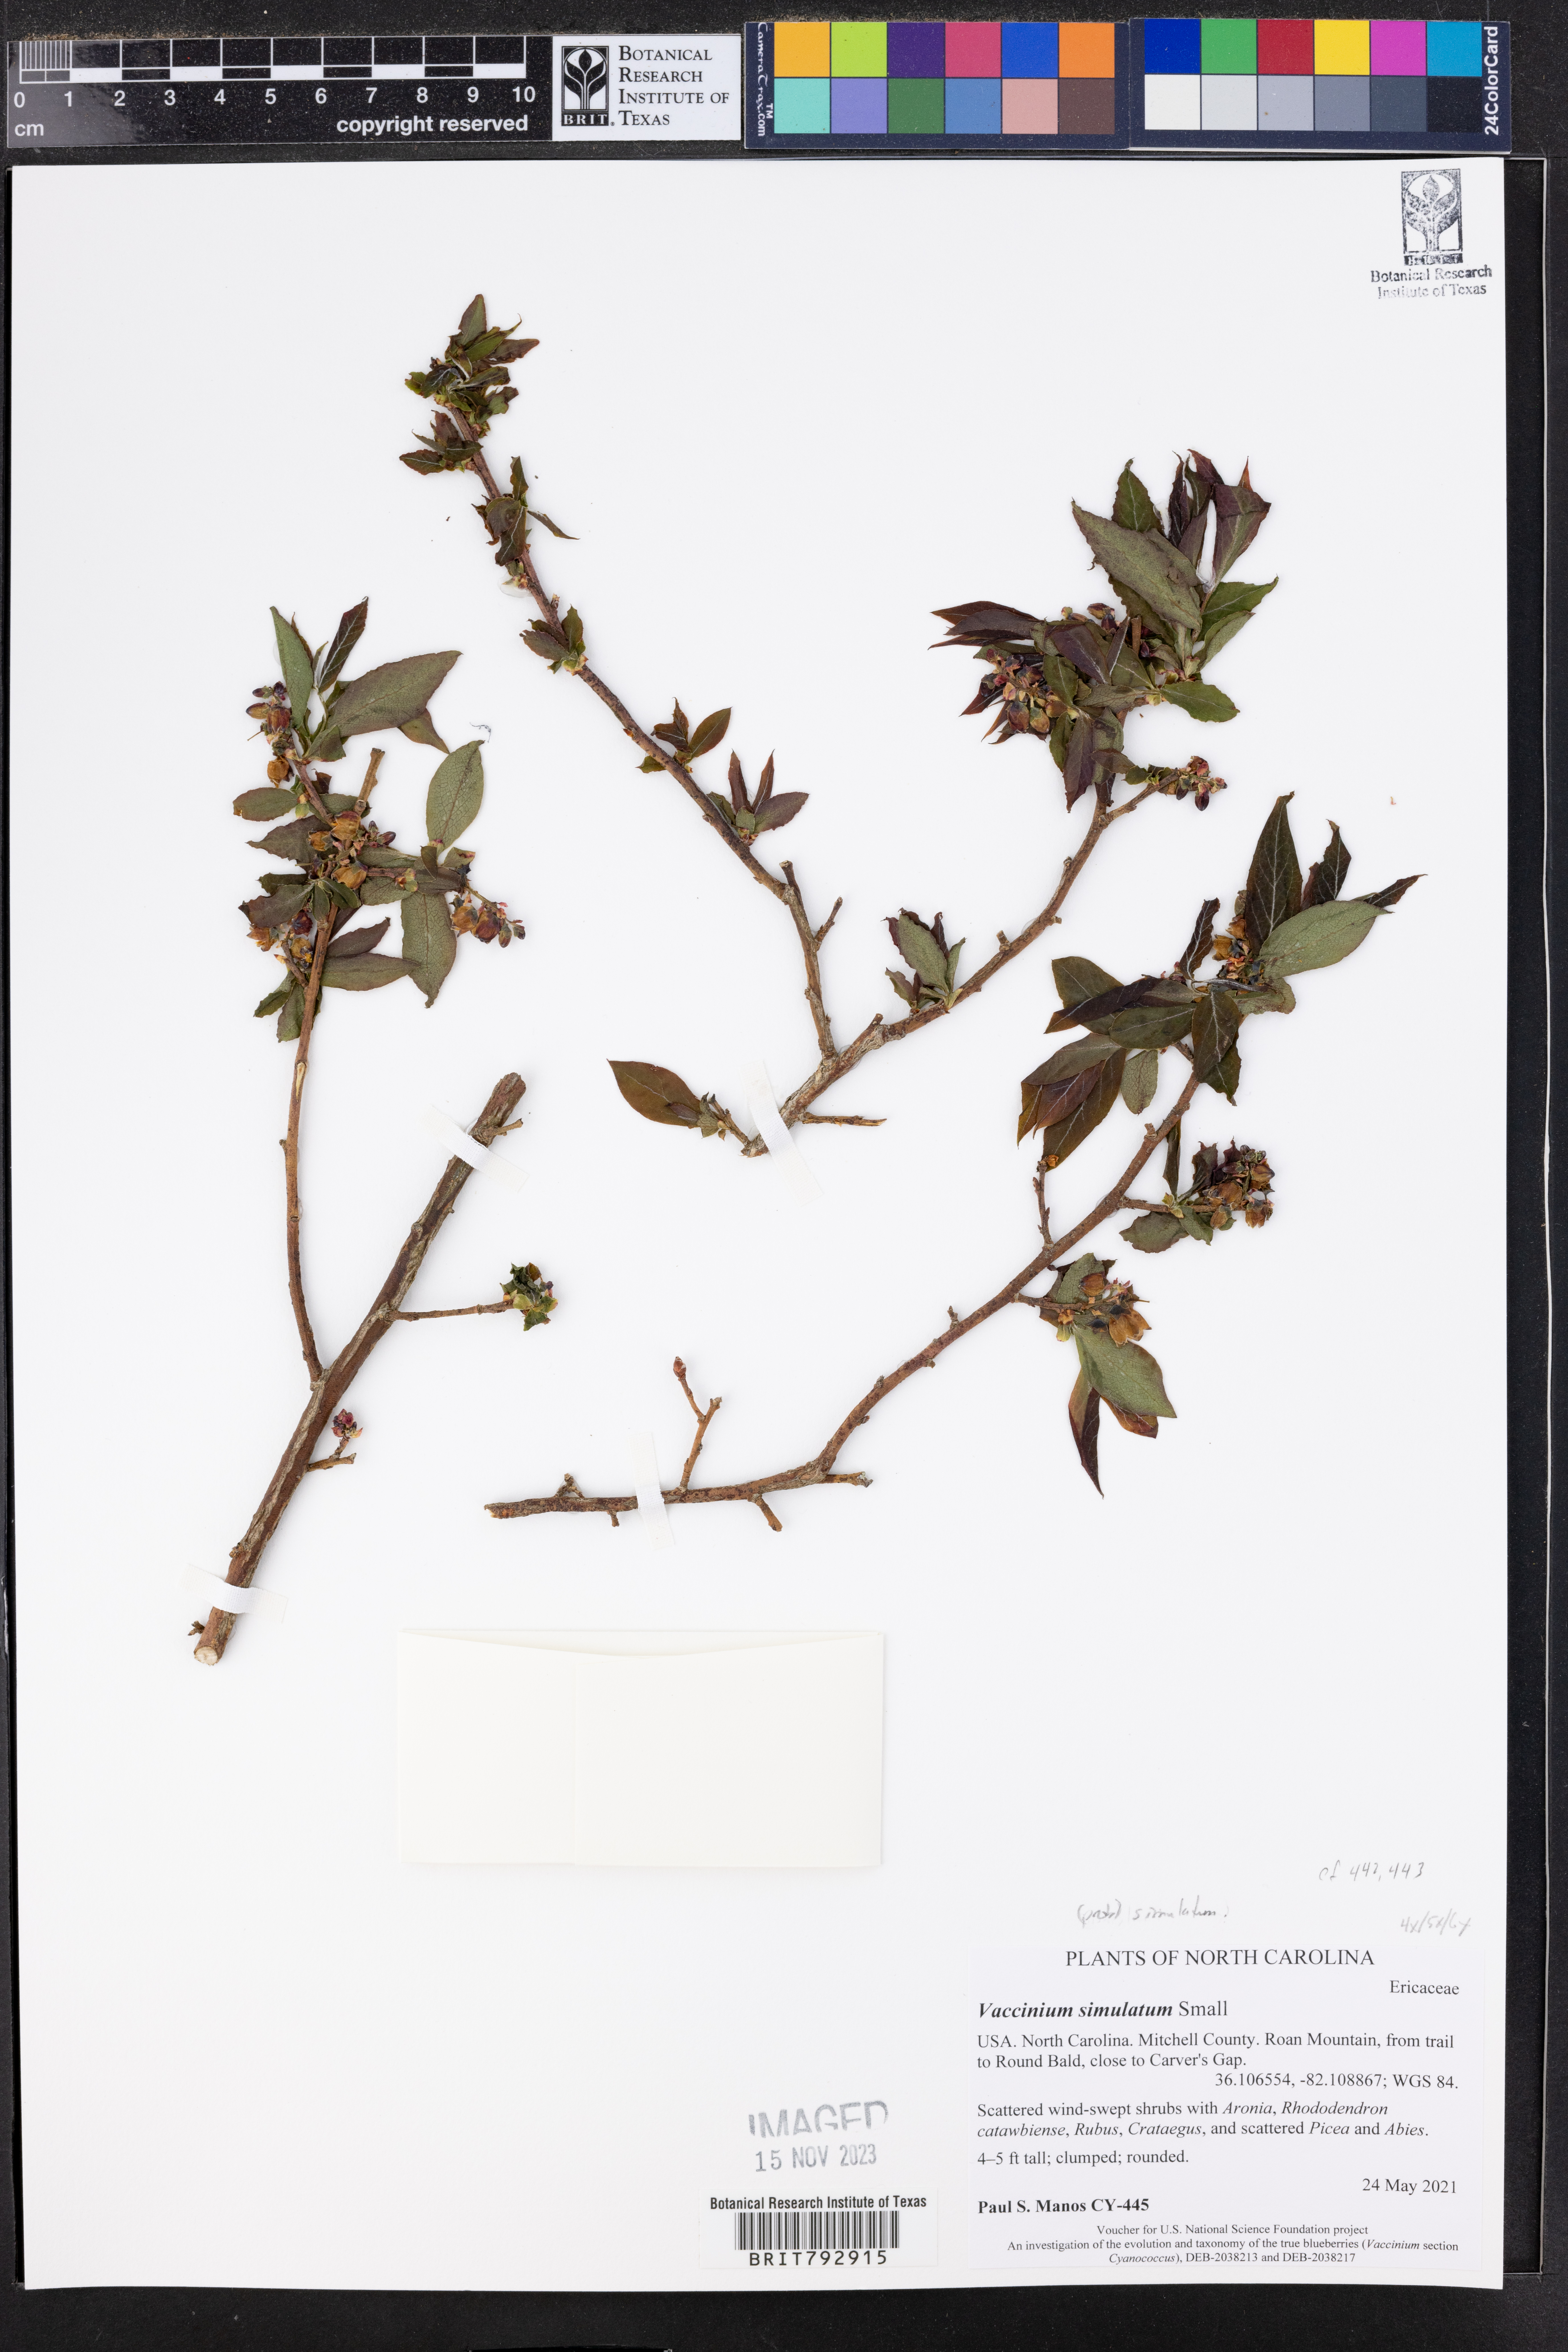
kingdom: Plantae
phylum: Tracheophyta
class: Magnoliopsida
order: Ericales
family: Ericaceae
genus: Vaccinium
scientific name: Vaccinium corymbosum
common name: Blueberry
